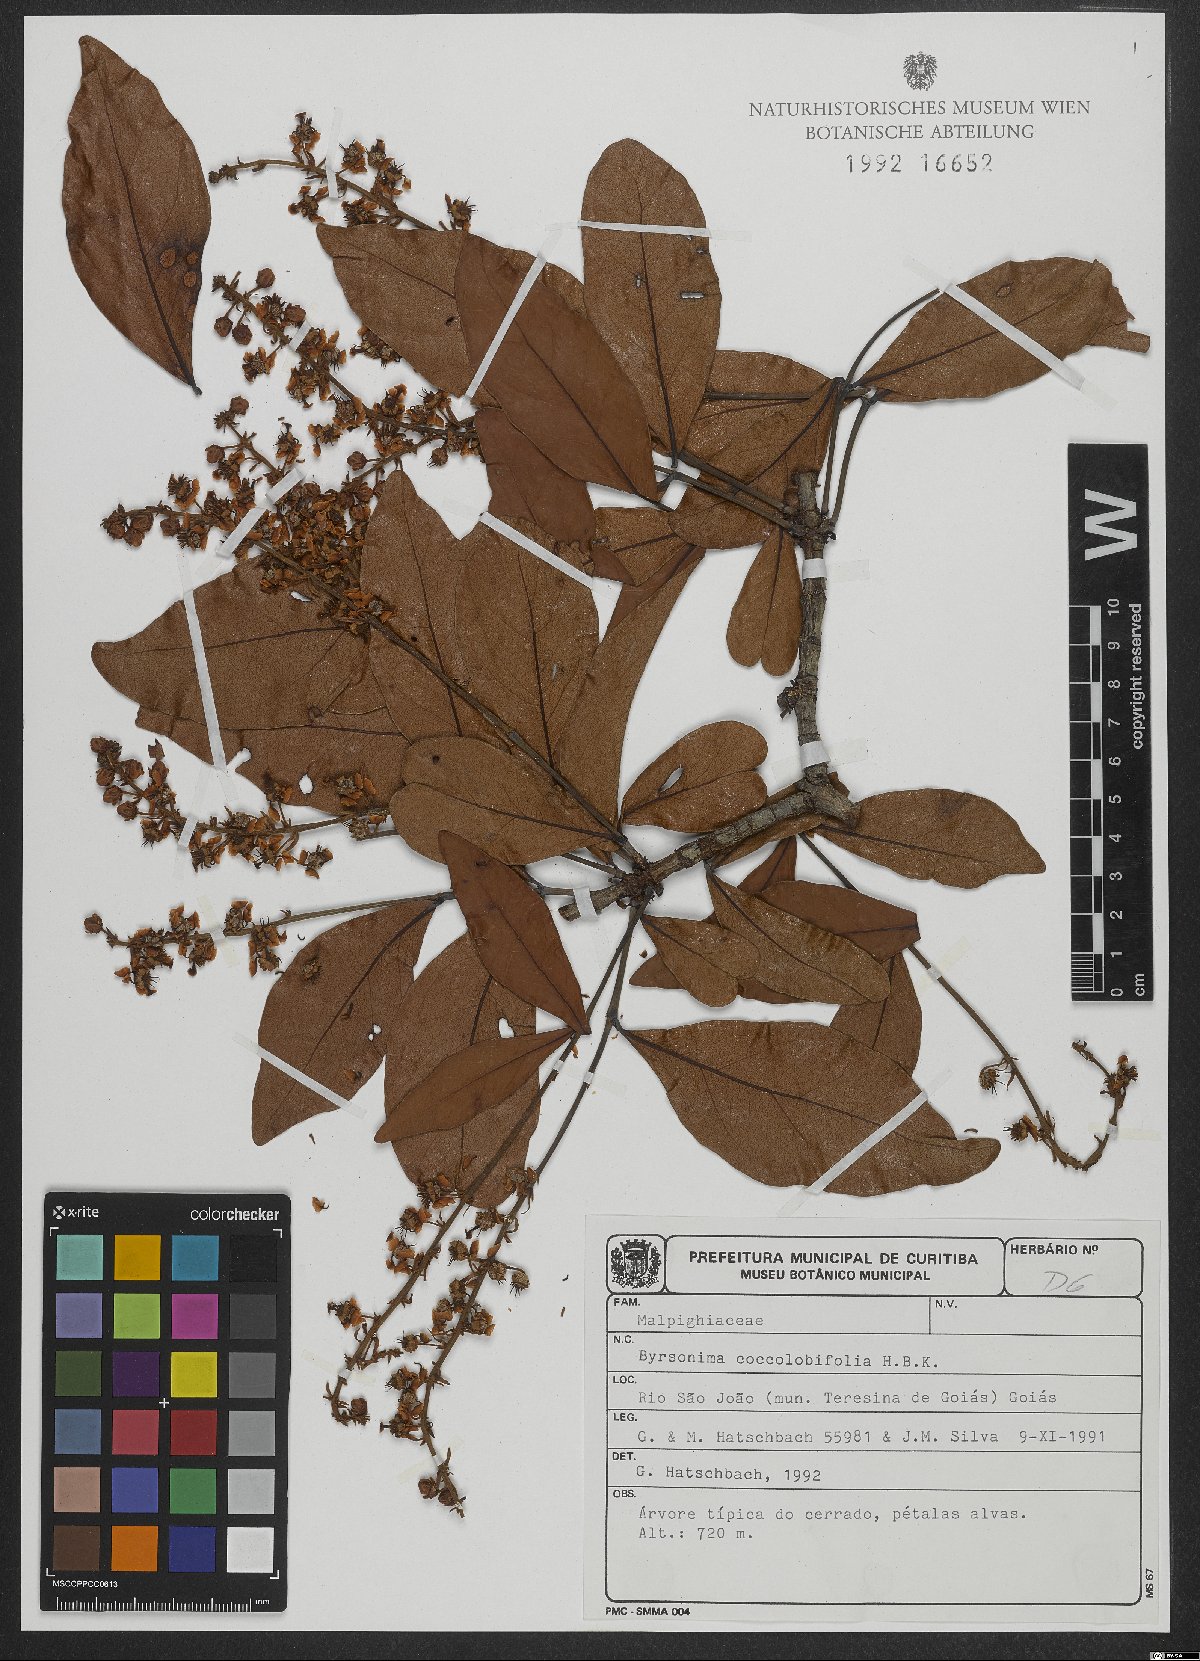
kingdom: Plantae
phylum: Tracheophyta
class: Magnoliopsida
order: Malpighiales
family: Malpighiaceae
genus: Byrsonima
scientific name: Byrsonima coccolobifolia
